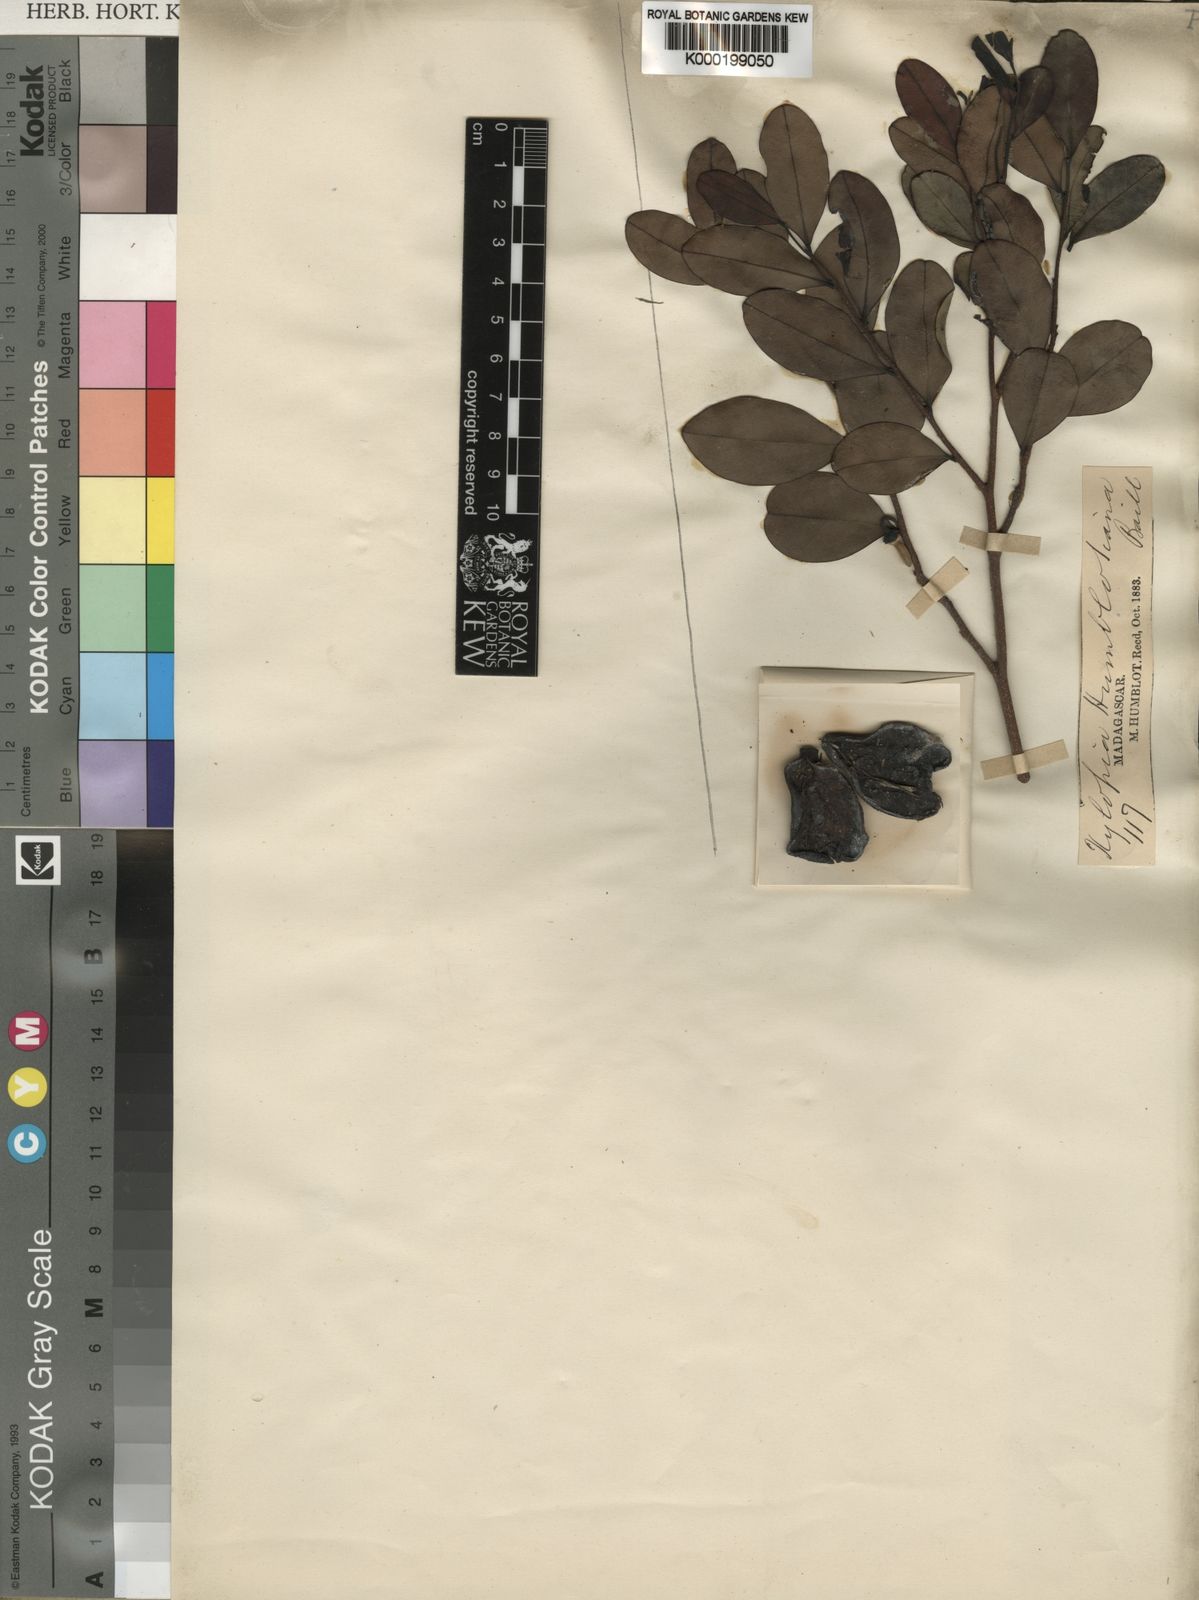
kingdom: Plantae
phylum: Tracheophyta
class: Magnoliopsida
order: Magnoliales
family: Annonaceae
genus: Xylopia
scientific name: Xylopia humblotiana
